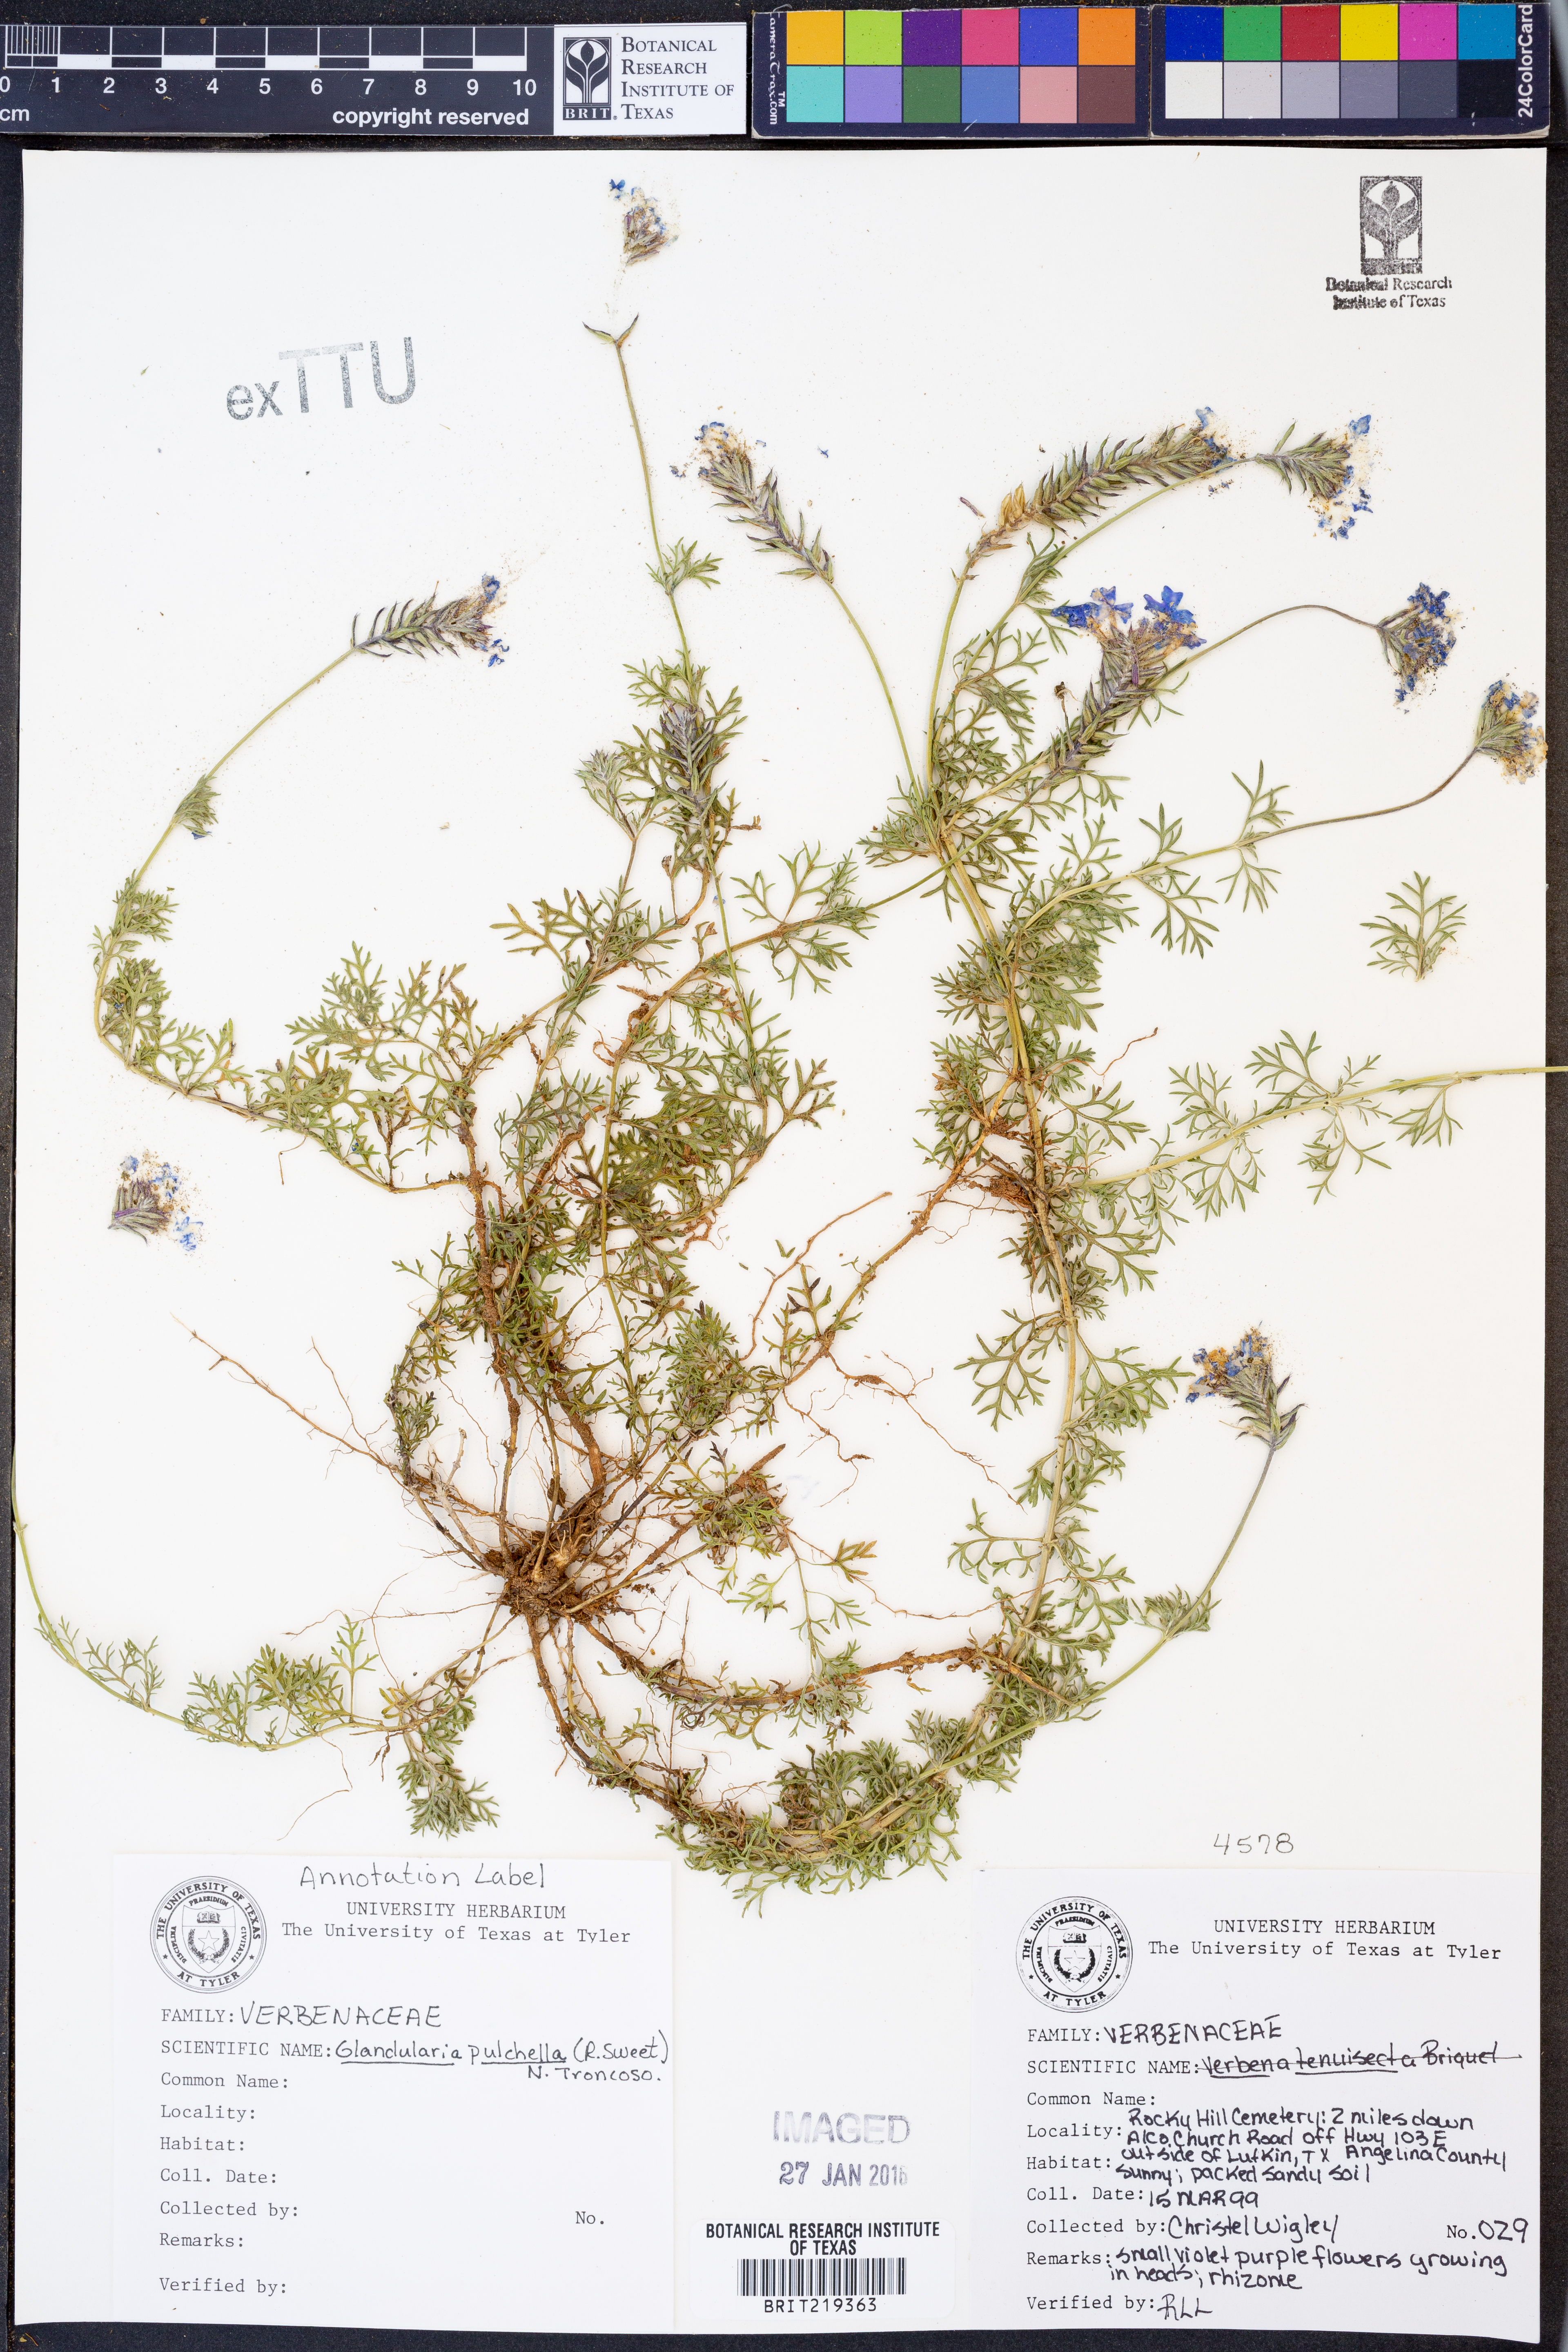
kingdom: Plantae
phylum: Tracheophyta
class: Magnoliopsida
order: Lamiales
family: Verbenaceae
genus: Verbena
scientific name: Verbena pumila
